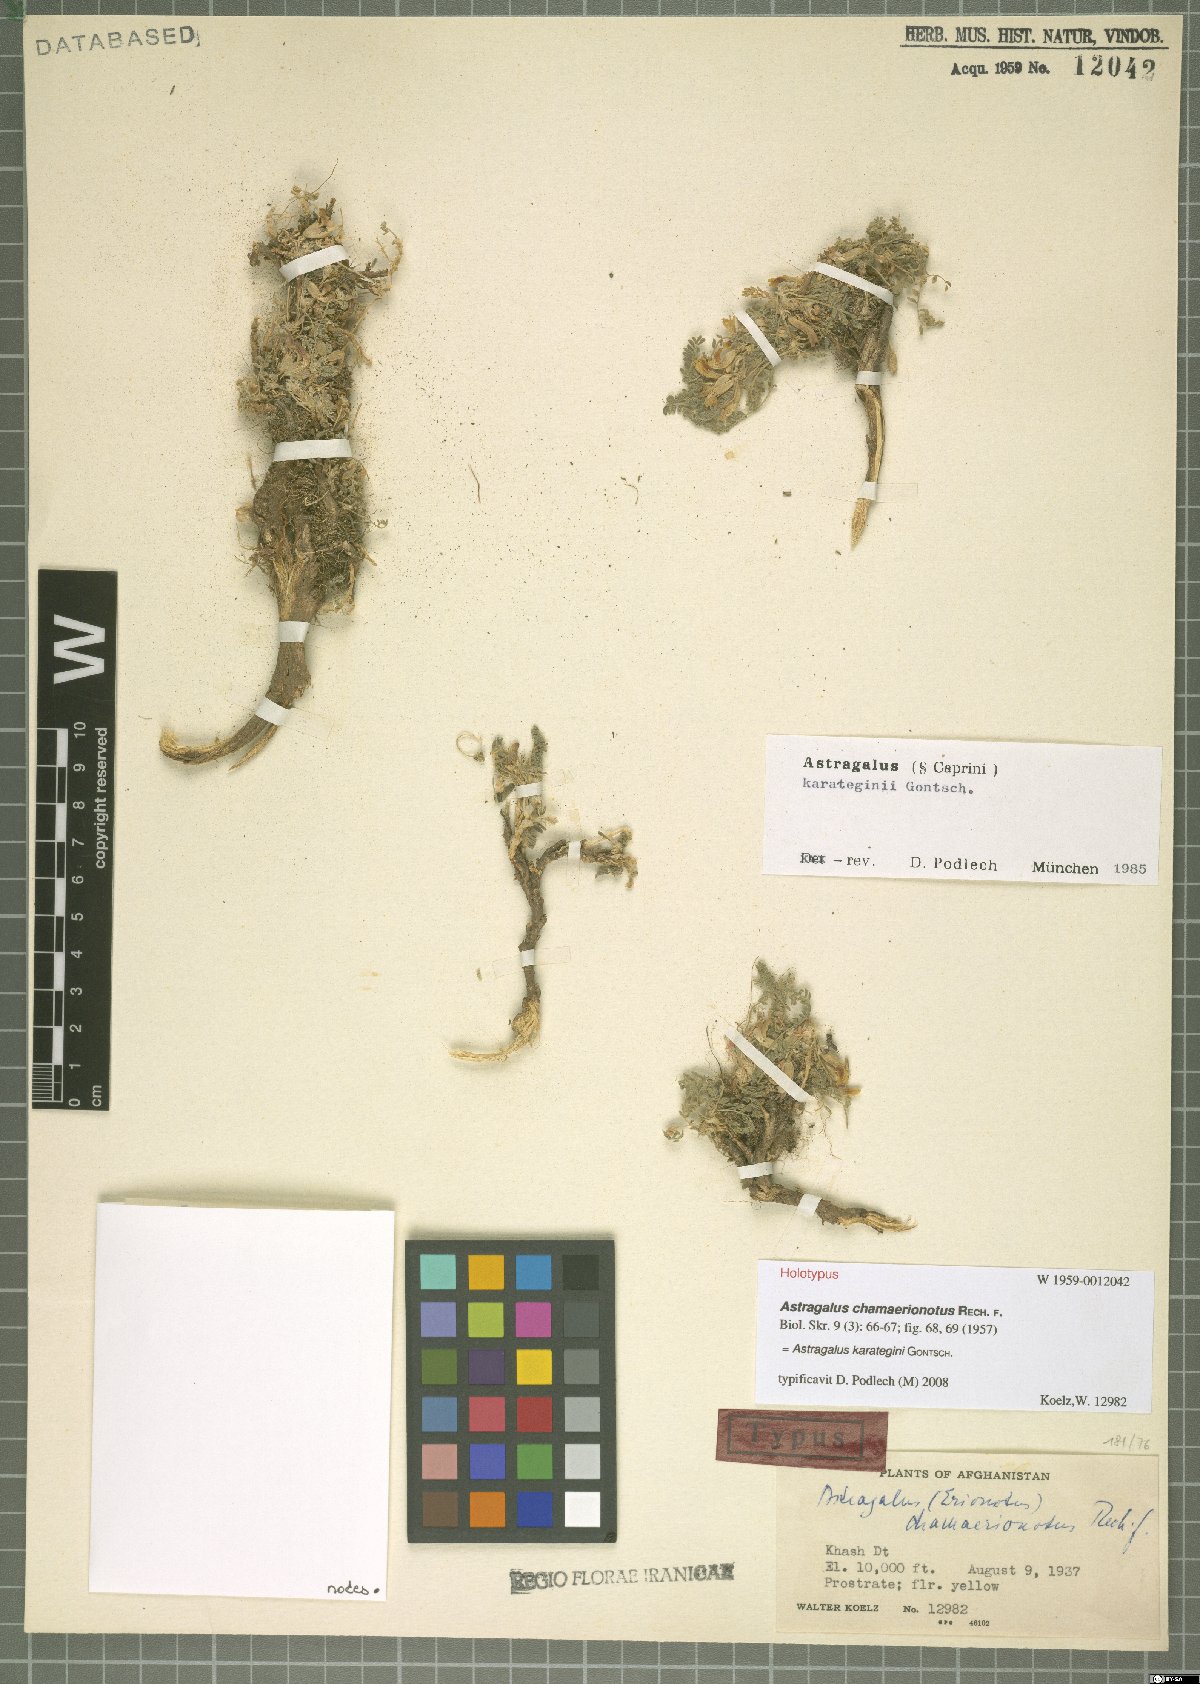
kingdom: Plantae
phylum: Tracheophyta
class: Magnoliopsida
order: Fabales
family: Fabaceae
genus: Astragalus
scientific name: Astragalus karategini
